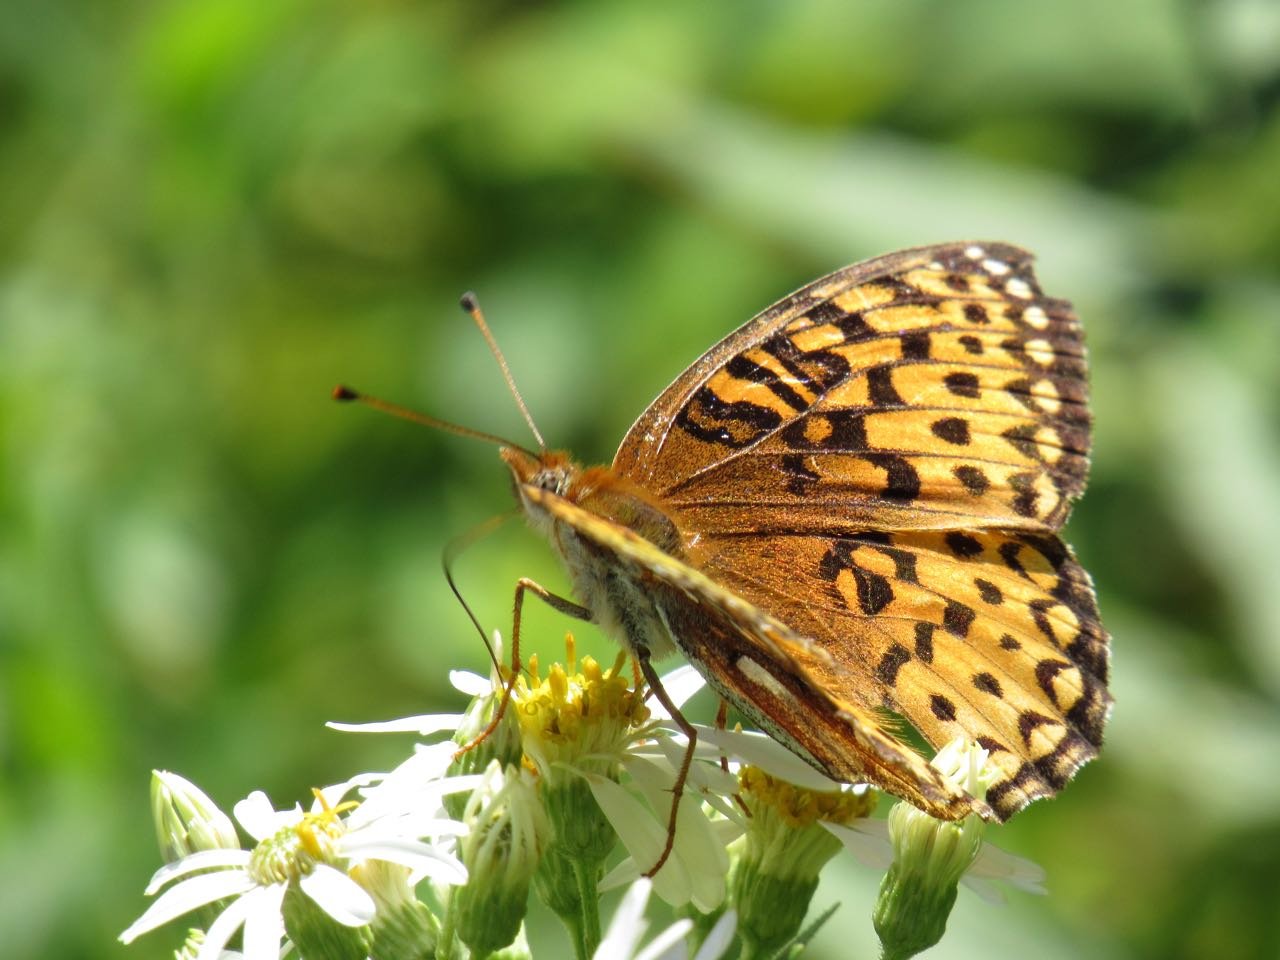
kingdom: Animalia
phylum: Arthropoda
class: Insecta
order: Lepidoptera
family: Nymphalidae
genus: Speyeria
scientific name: Speyeria atlantis
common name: Atlantis Fritillary
